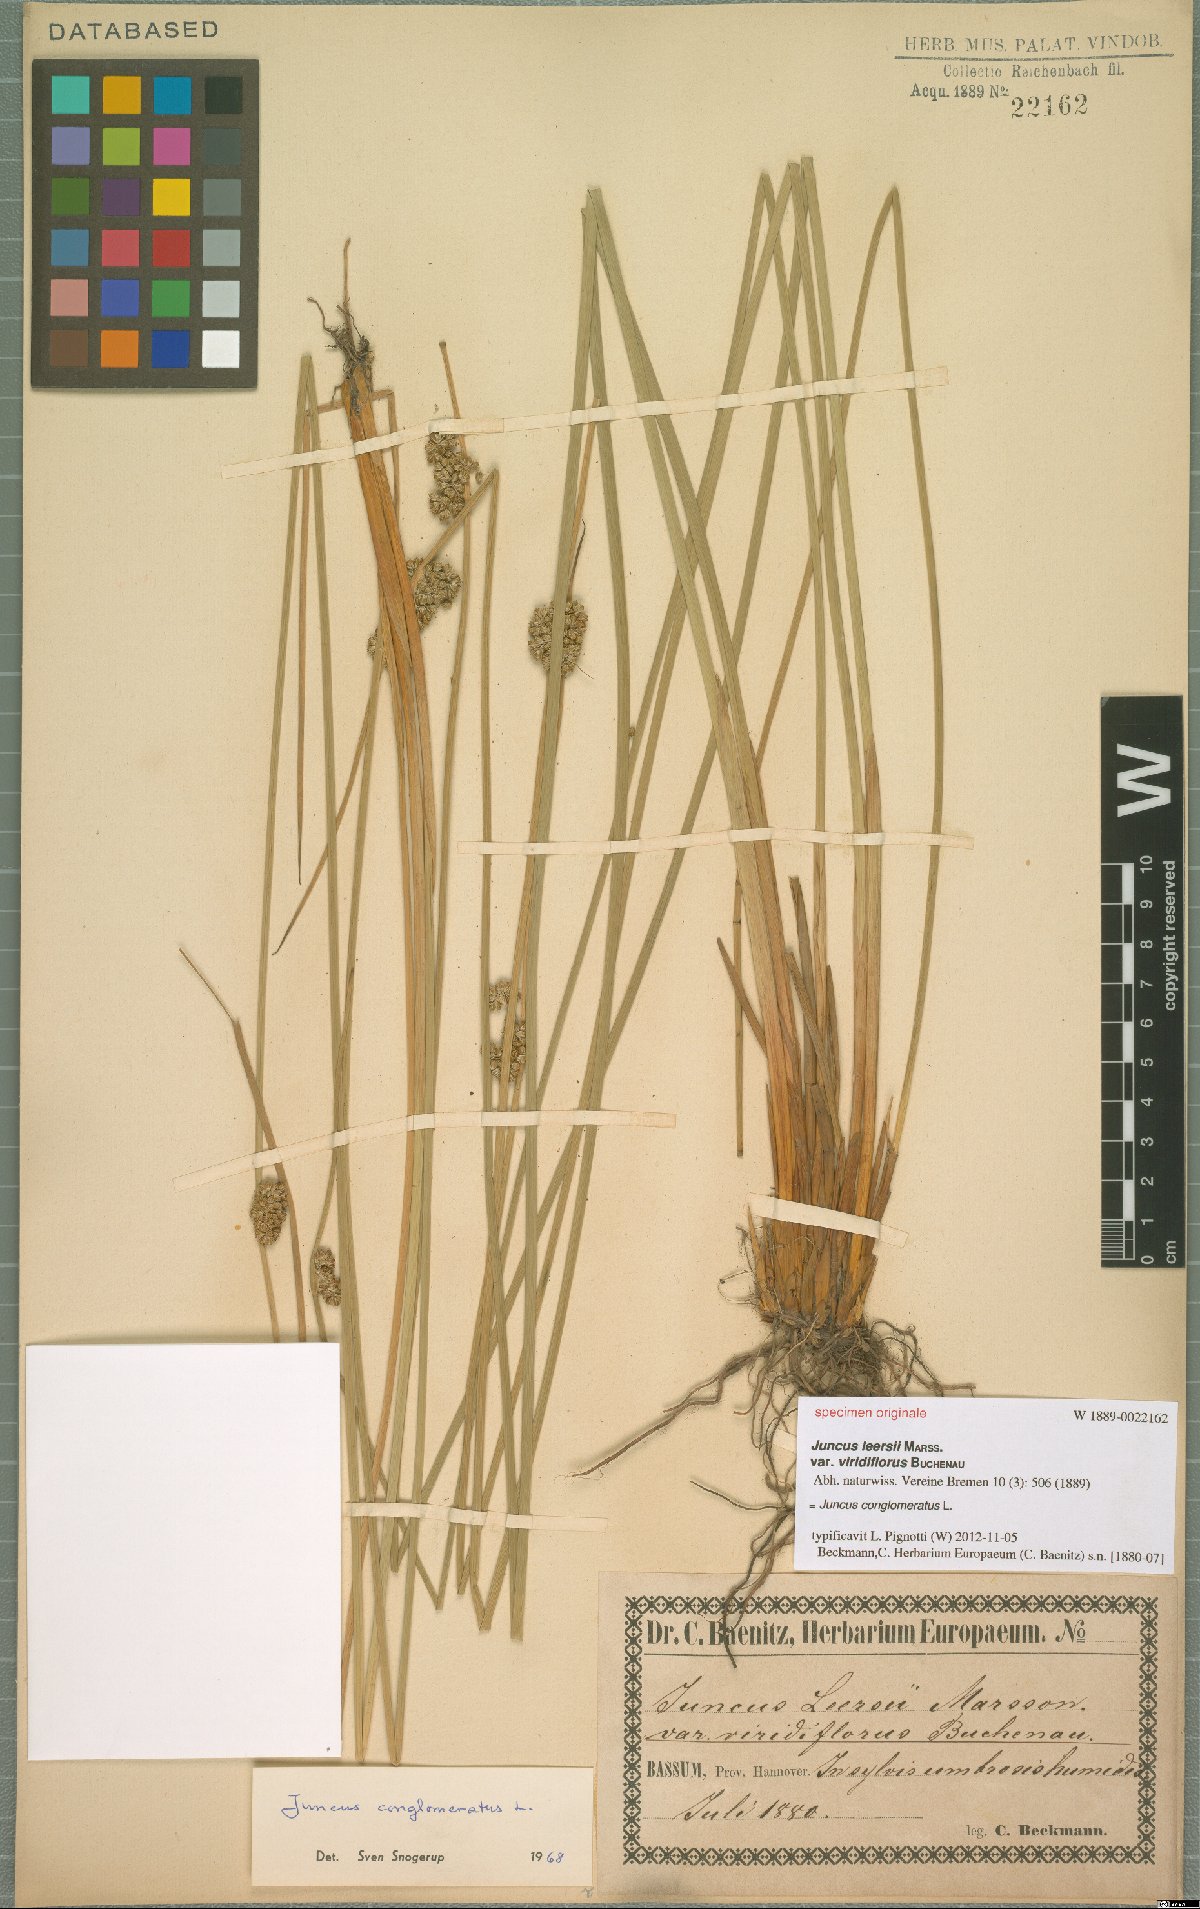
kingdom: Plantae
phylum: Tracheophyta
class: Liliopsida
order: Poales
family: Juncaceae
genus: Juncus
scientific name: Juncus conglomeratus
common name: Compact rush
